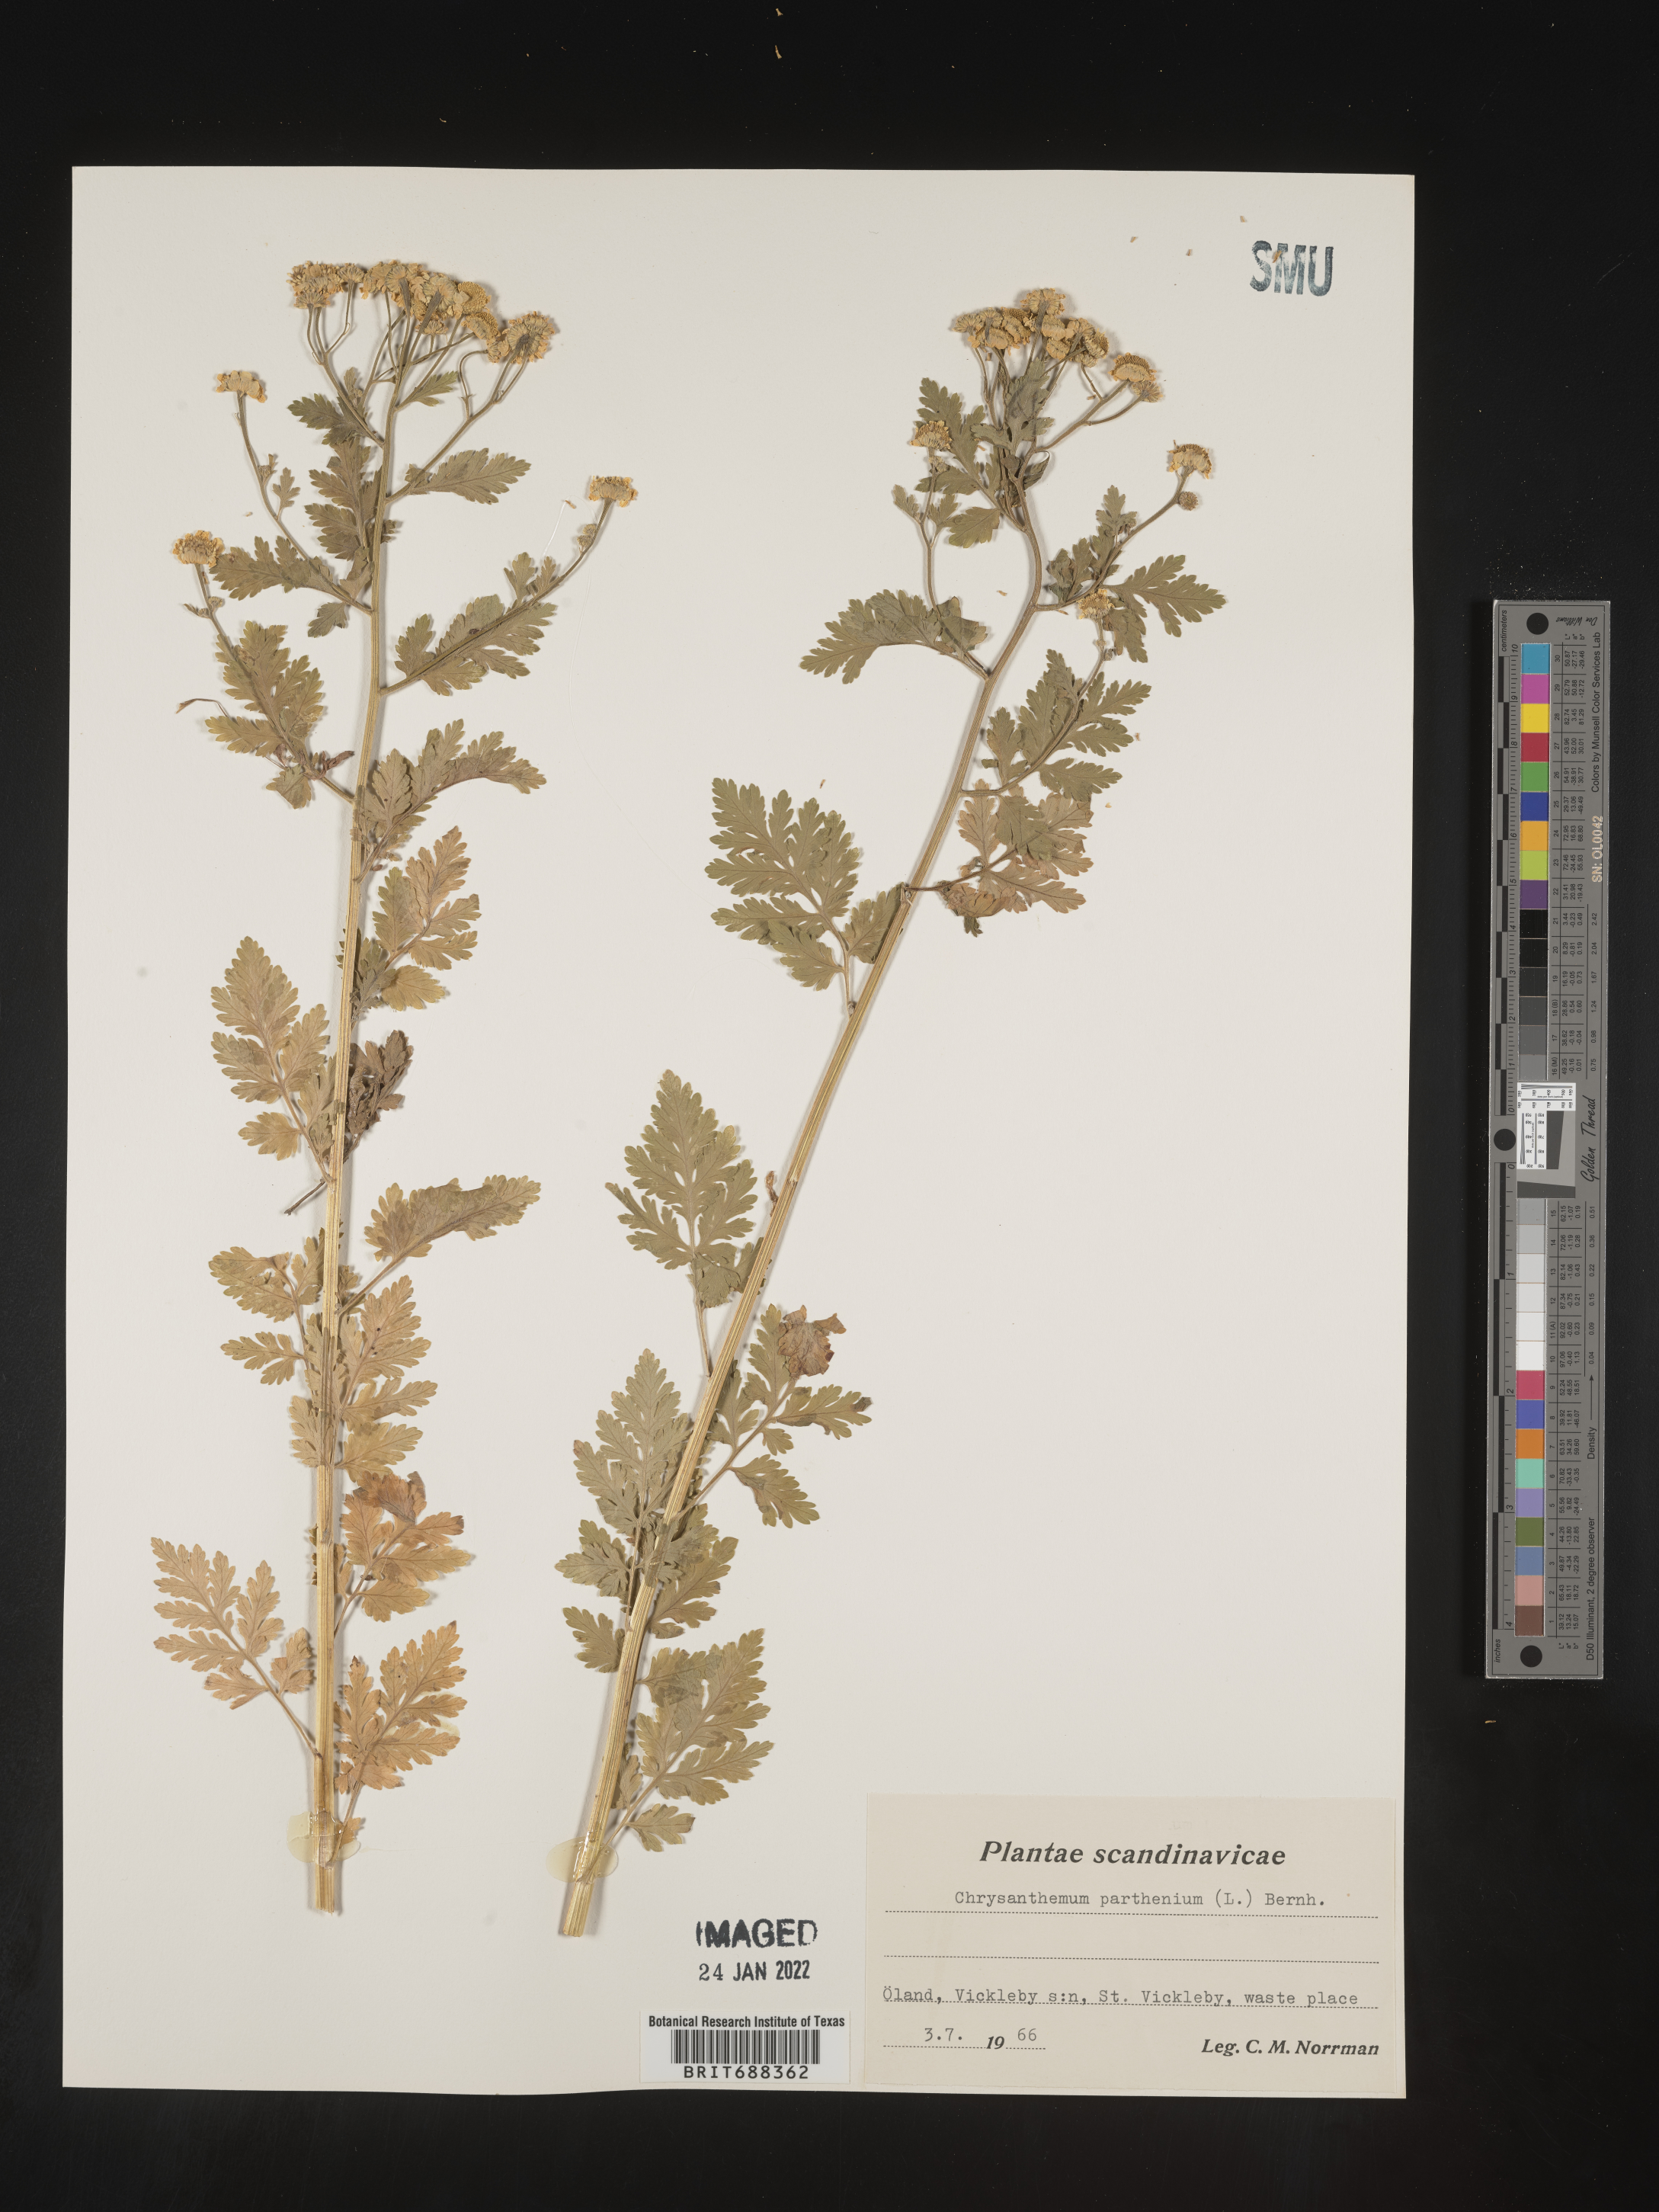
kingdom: Plantae
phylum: Tracheophyta
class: Magnoliopsida
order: Asterales
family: Asteraceae
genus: Chrysanthemum
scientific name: Chrysanthemum
